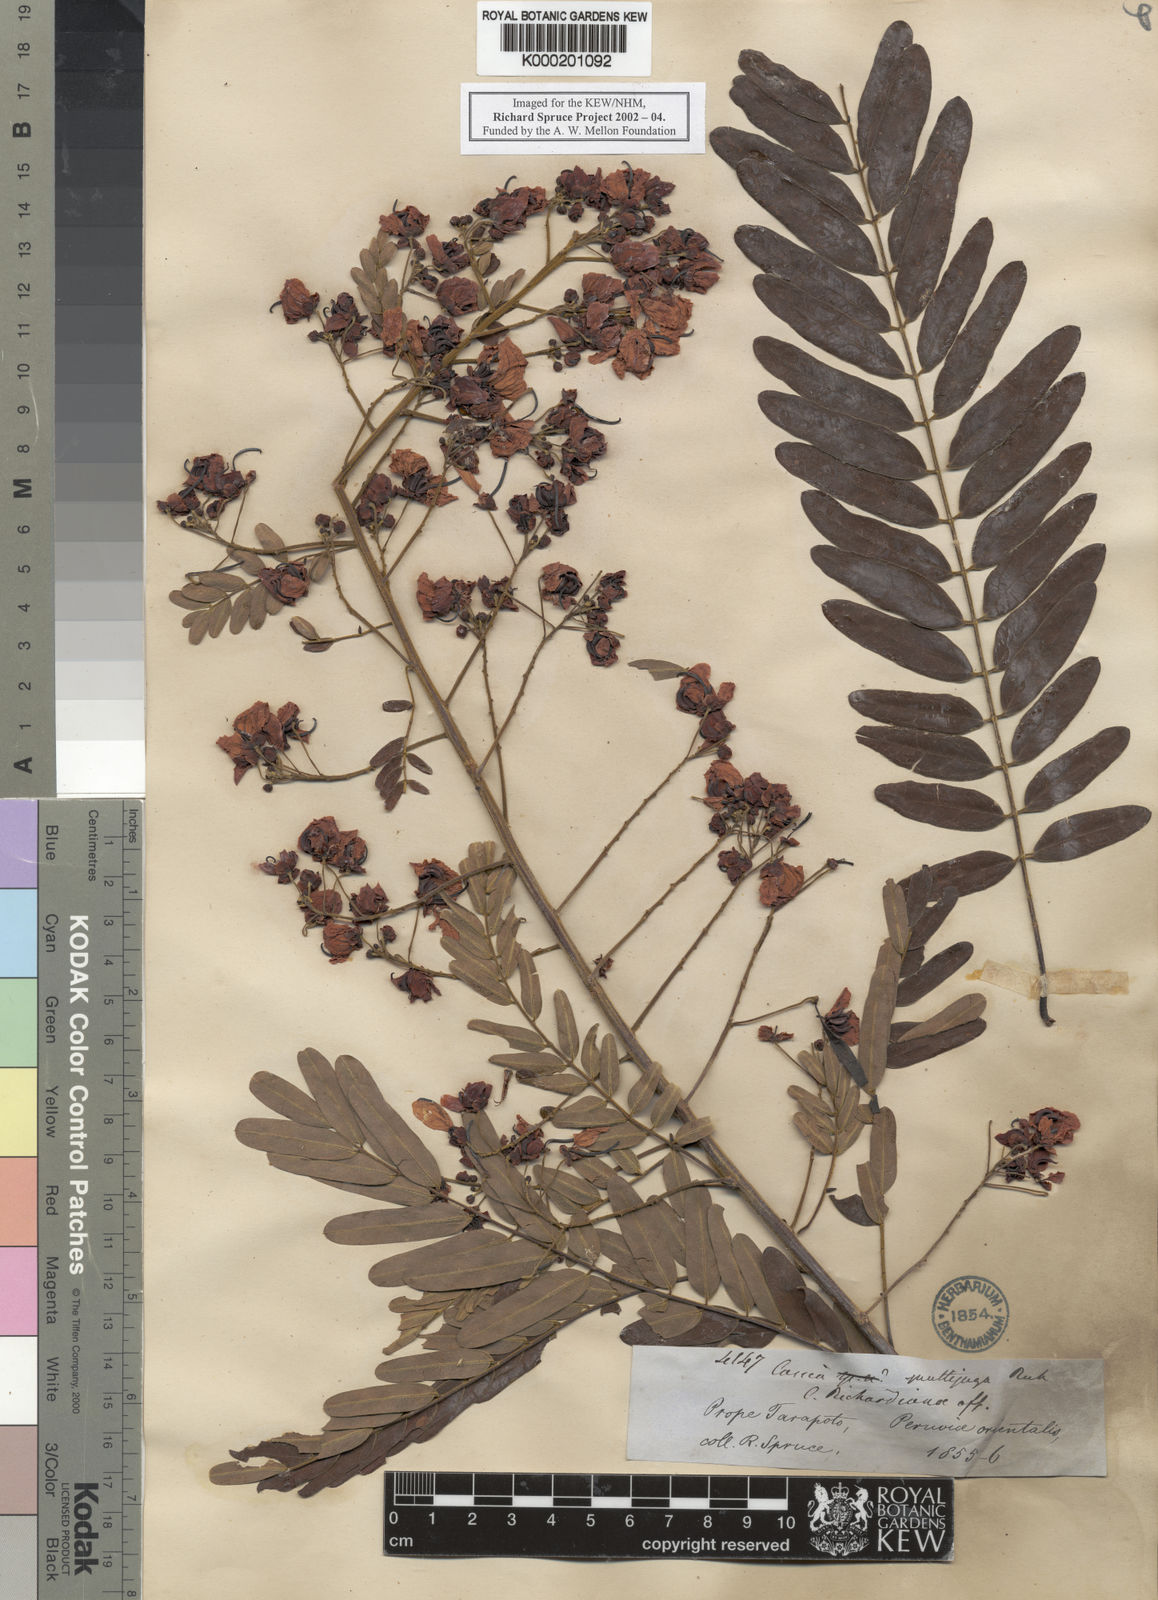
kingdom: Plantae
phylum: Tracheophyta
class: Magnoliopsida
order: Fabales
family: Fabaceae
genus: Senna
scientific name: Senna multijuga
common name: False sicklepod
